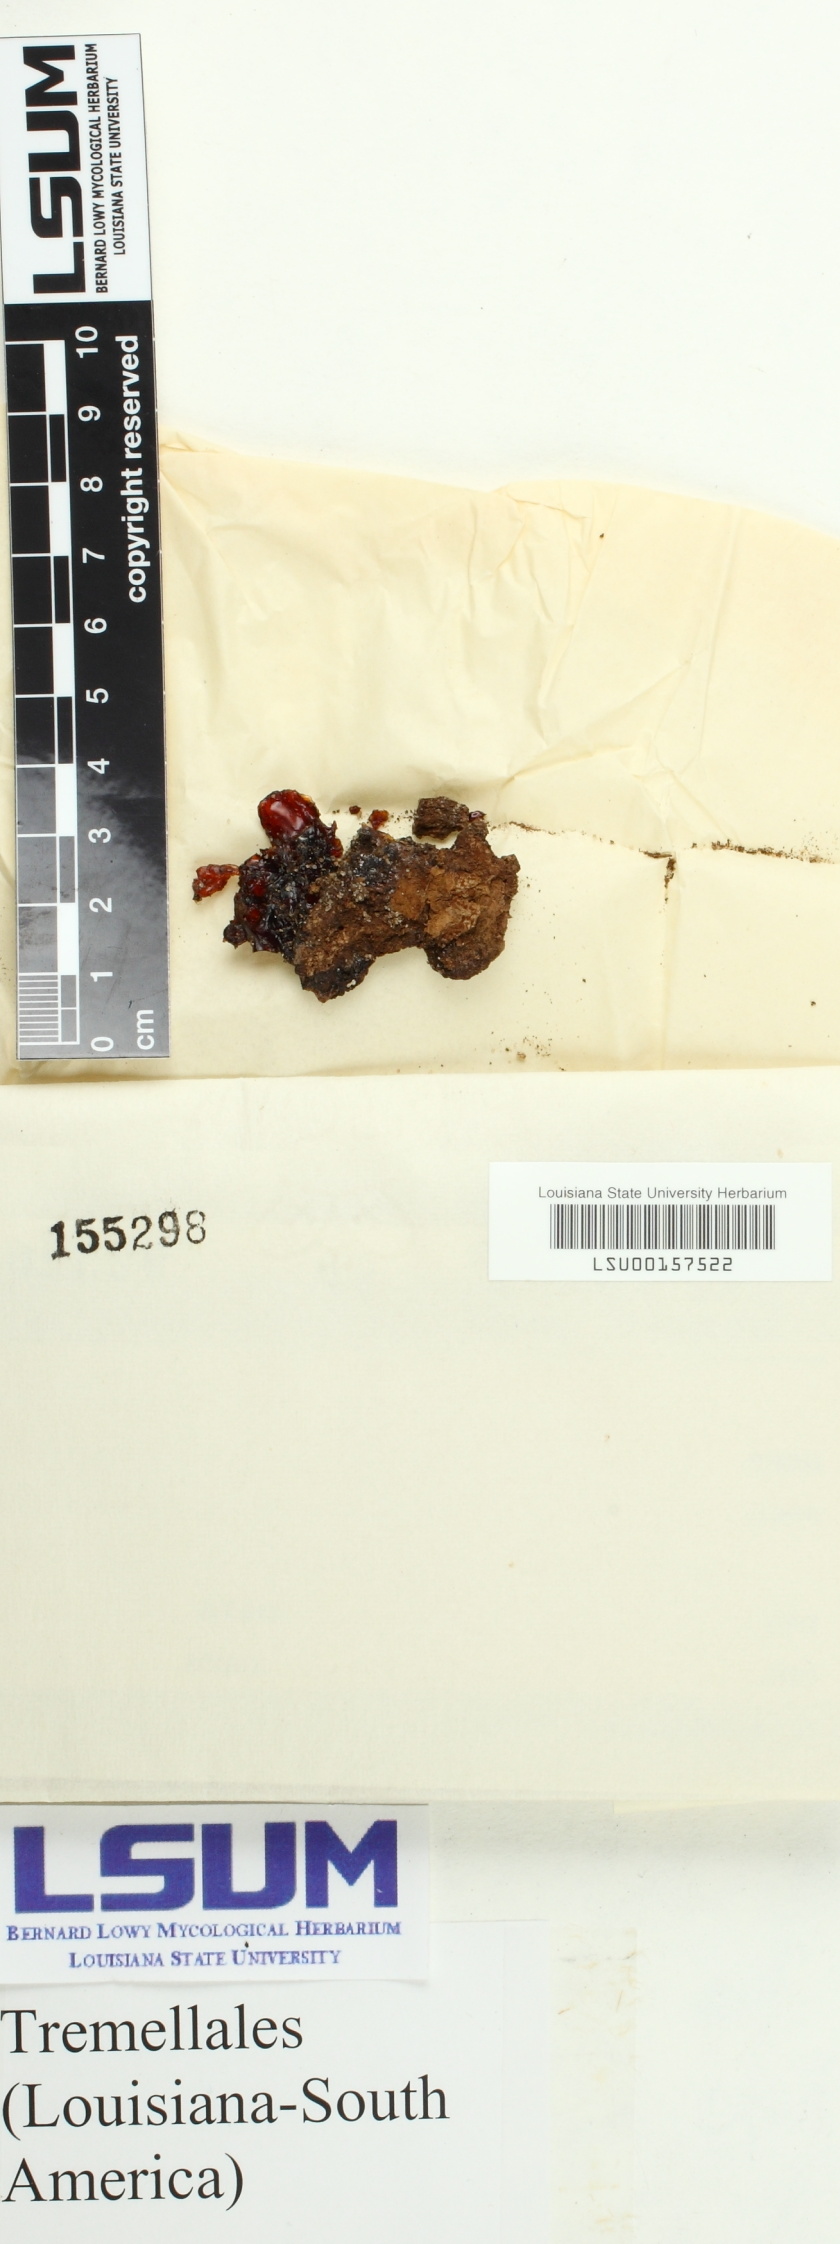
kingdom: Fungi
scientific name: Fungi
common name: Fungi
